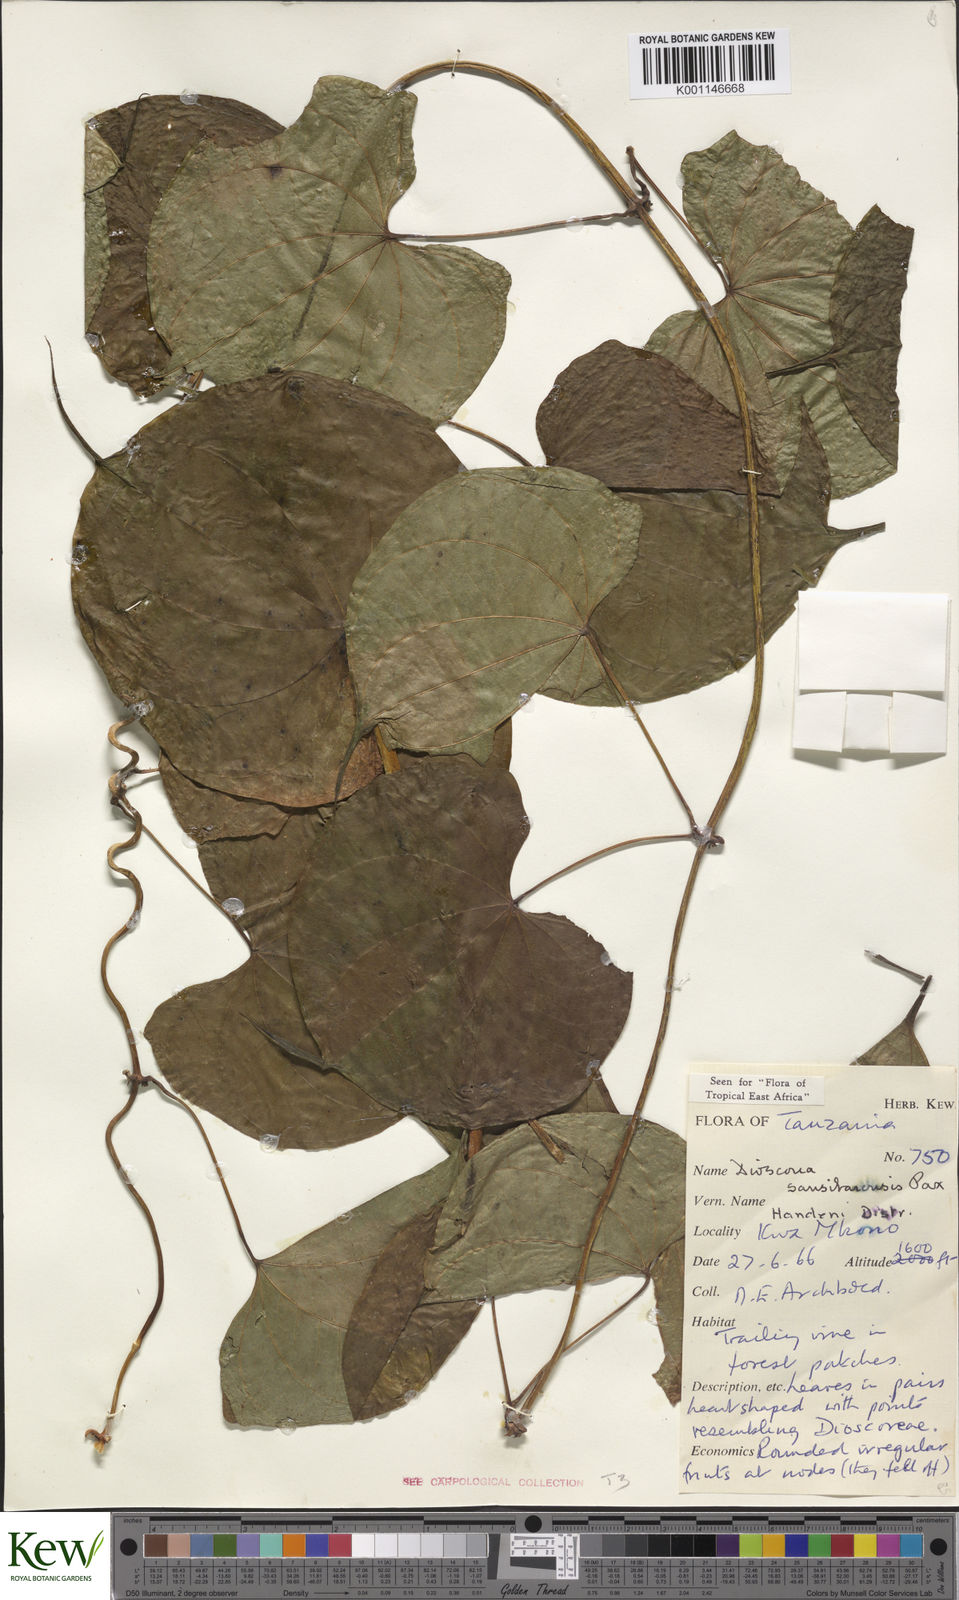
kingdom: Plantae
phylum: Tracheophyta
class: Liliopsida
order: Dioscoreales
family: Dioscoreaceae
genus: Dioscorea
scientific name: Dioscorea sansibarensis
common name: Zanzibar yam
